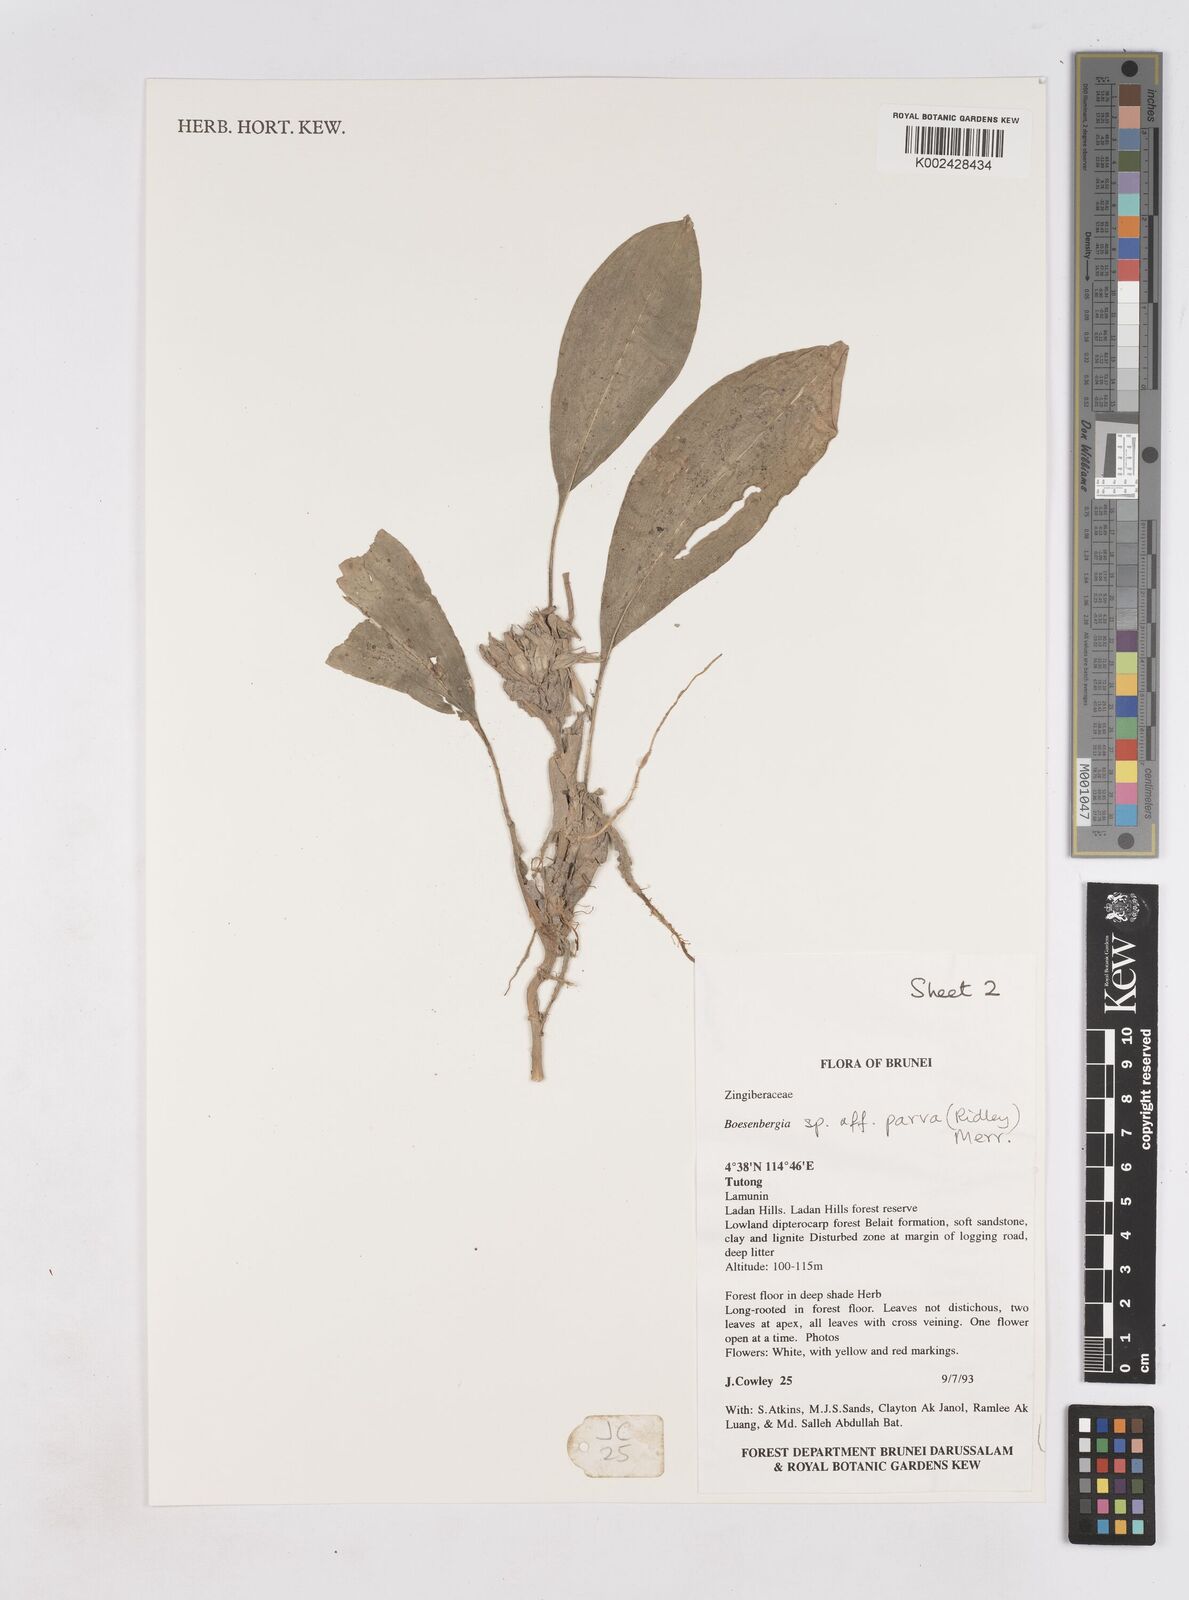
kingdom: Plantae
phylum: Tracheophyta
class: Liliopsida
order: Zingiberales
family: Zingiberaceae
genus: Boesenbergia
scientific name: Boesenbergia parva
